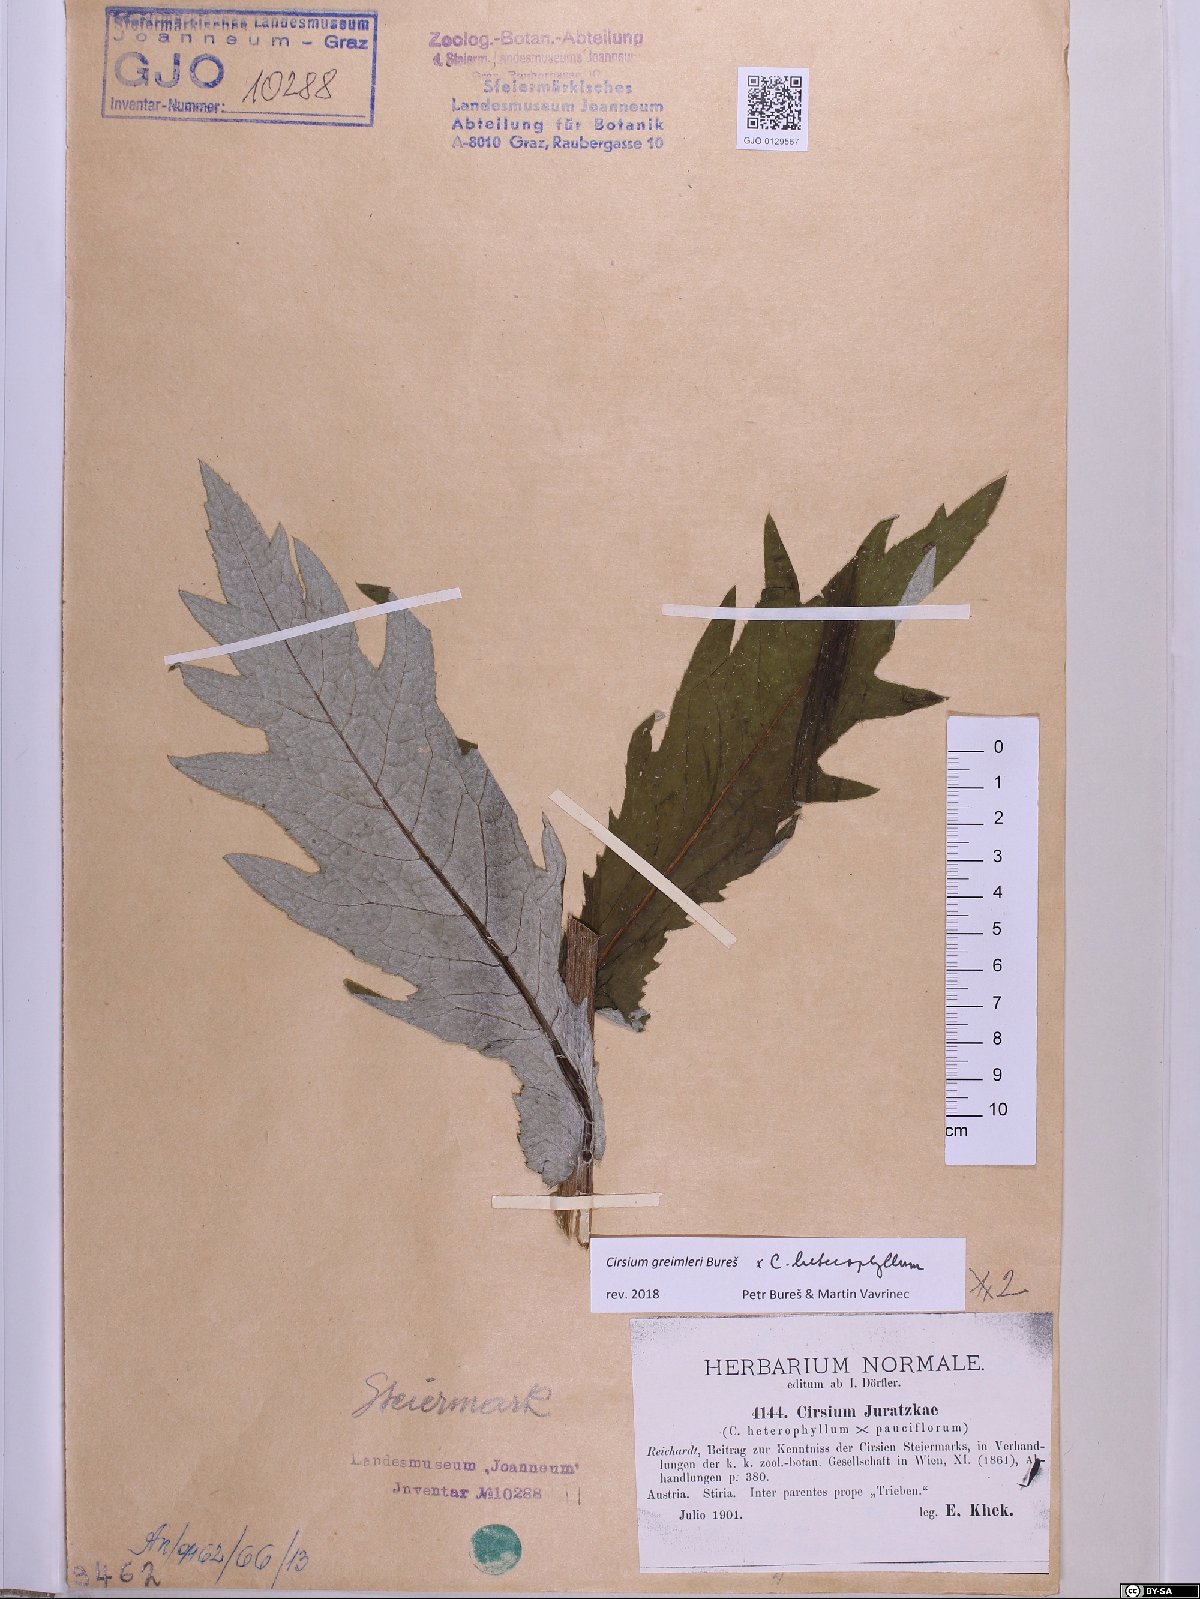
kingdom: Plantae
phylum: Tracheophyta
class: Magnoliopsida
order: Asterales
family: Asteraceae
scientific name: Asteraceae
